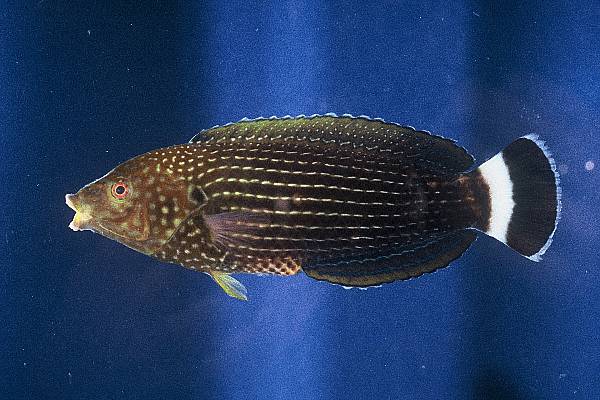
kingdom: Animalia
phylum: Chordata
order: Perciformes
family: Labridae
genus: Anampses
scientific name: Anampses lineatus
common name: Lined wrasse
